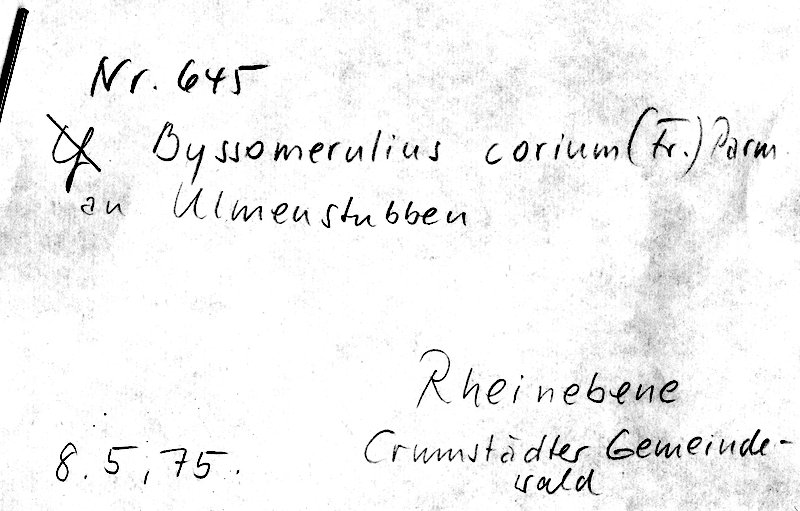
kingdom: Fungi
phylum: Basidiomycota
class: Agaricomycetes
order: Polyporales
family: Irpicaceae
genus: Byssomerulius
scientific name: Byssomerulius corium
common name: Netted crust
